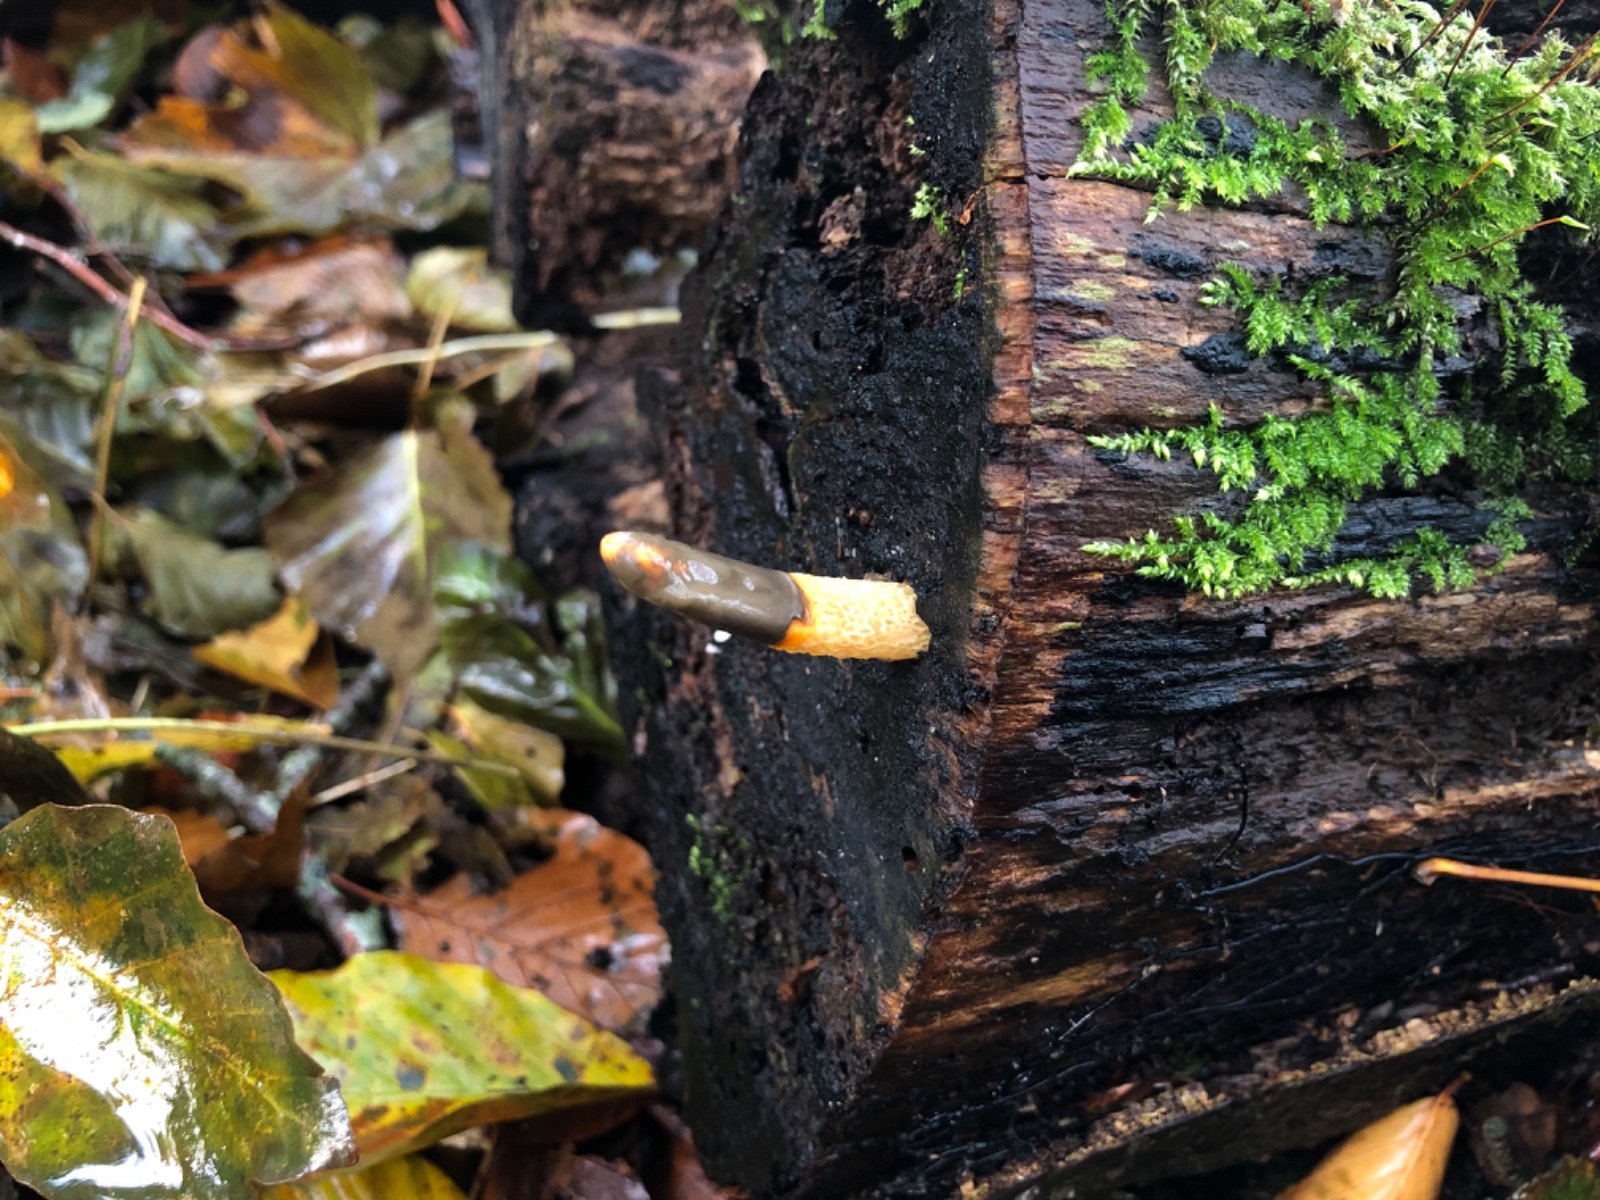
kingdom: Fungi
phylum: Basidiomycota
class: Agaricomycetes
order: Phallales
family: Phallaceae
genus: Mutinus
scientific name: Mutinus caninus
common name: hunde-stinksvamp
